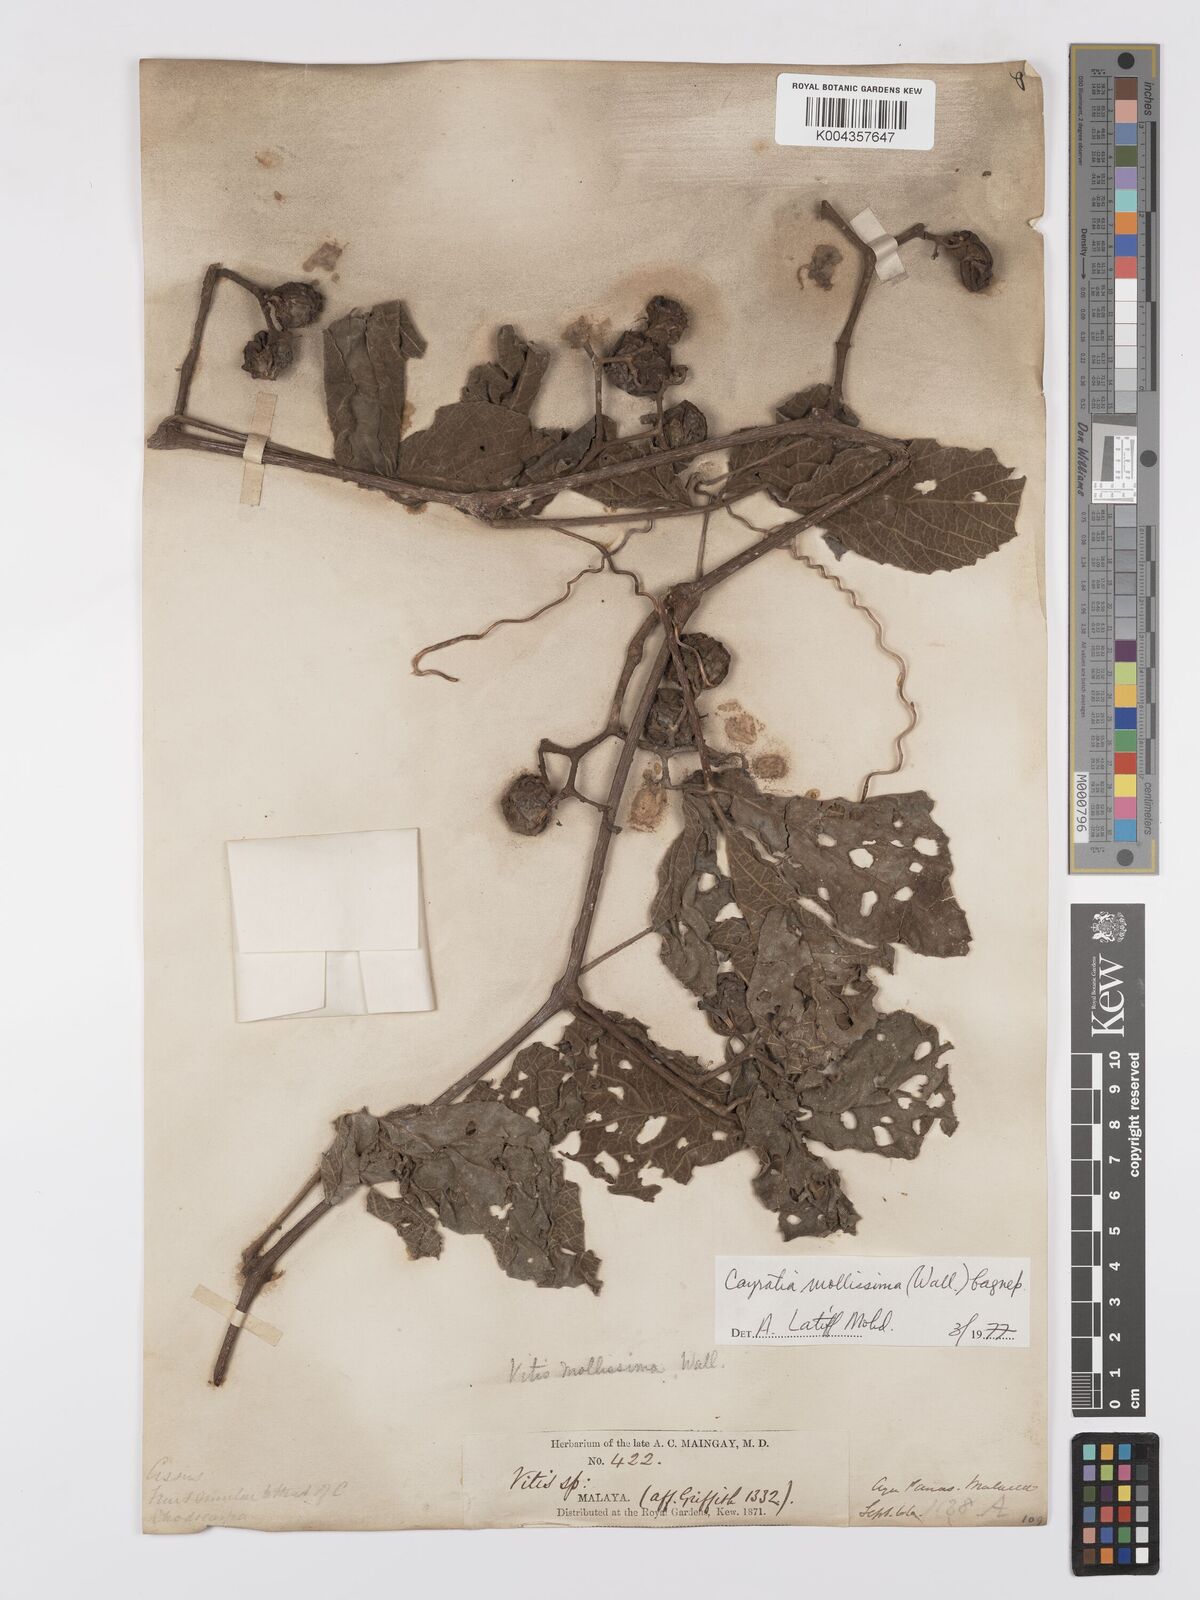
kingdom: Plantae
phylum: Tracheophyta
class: Magnoliopsida
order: Vitales
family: Vitaceae
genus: Cayratia
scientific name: Cayratia mollissima
